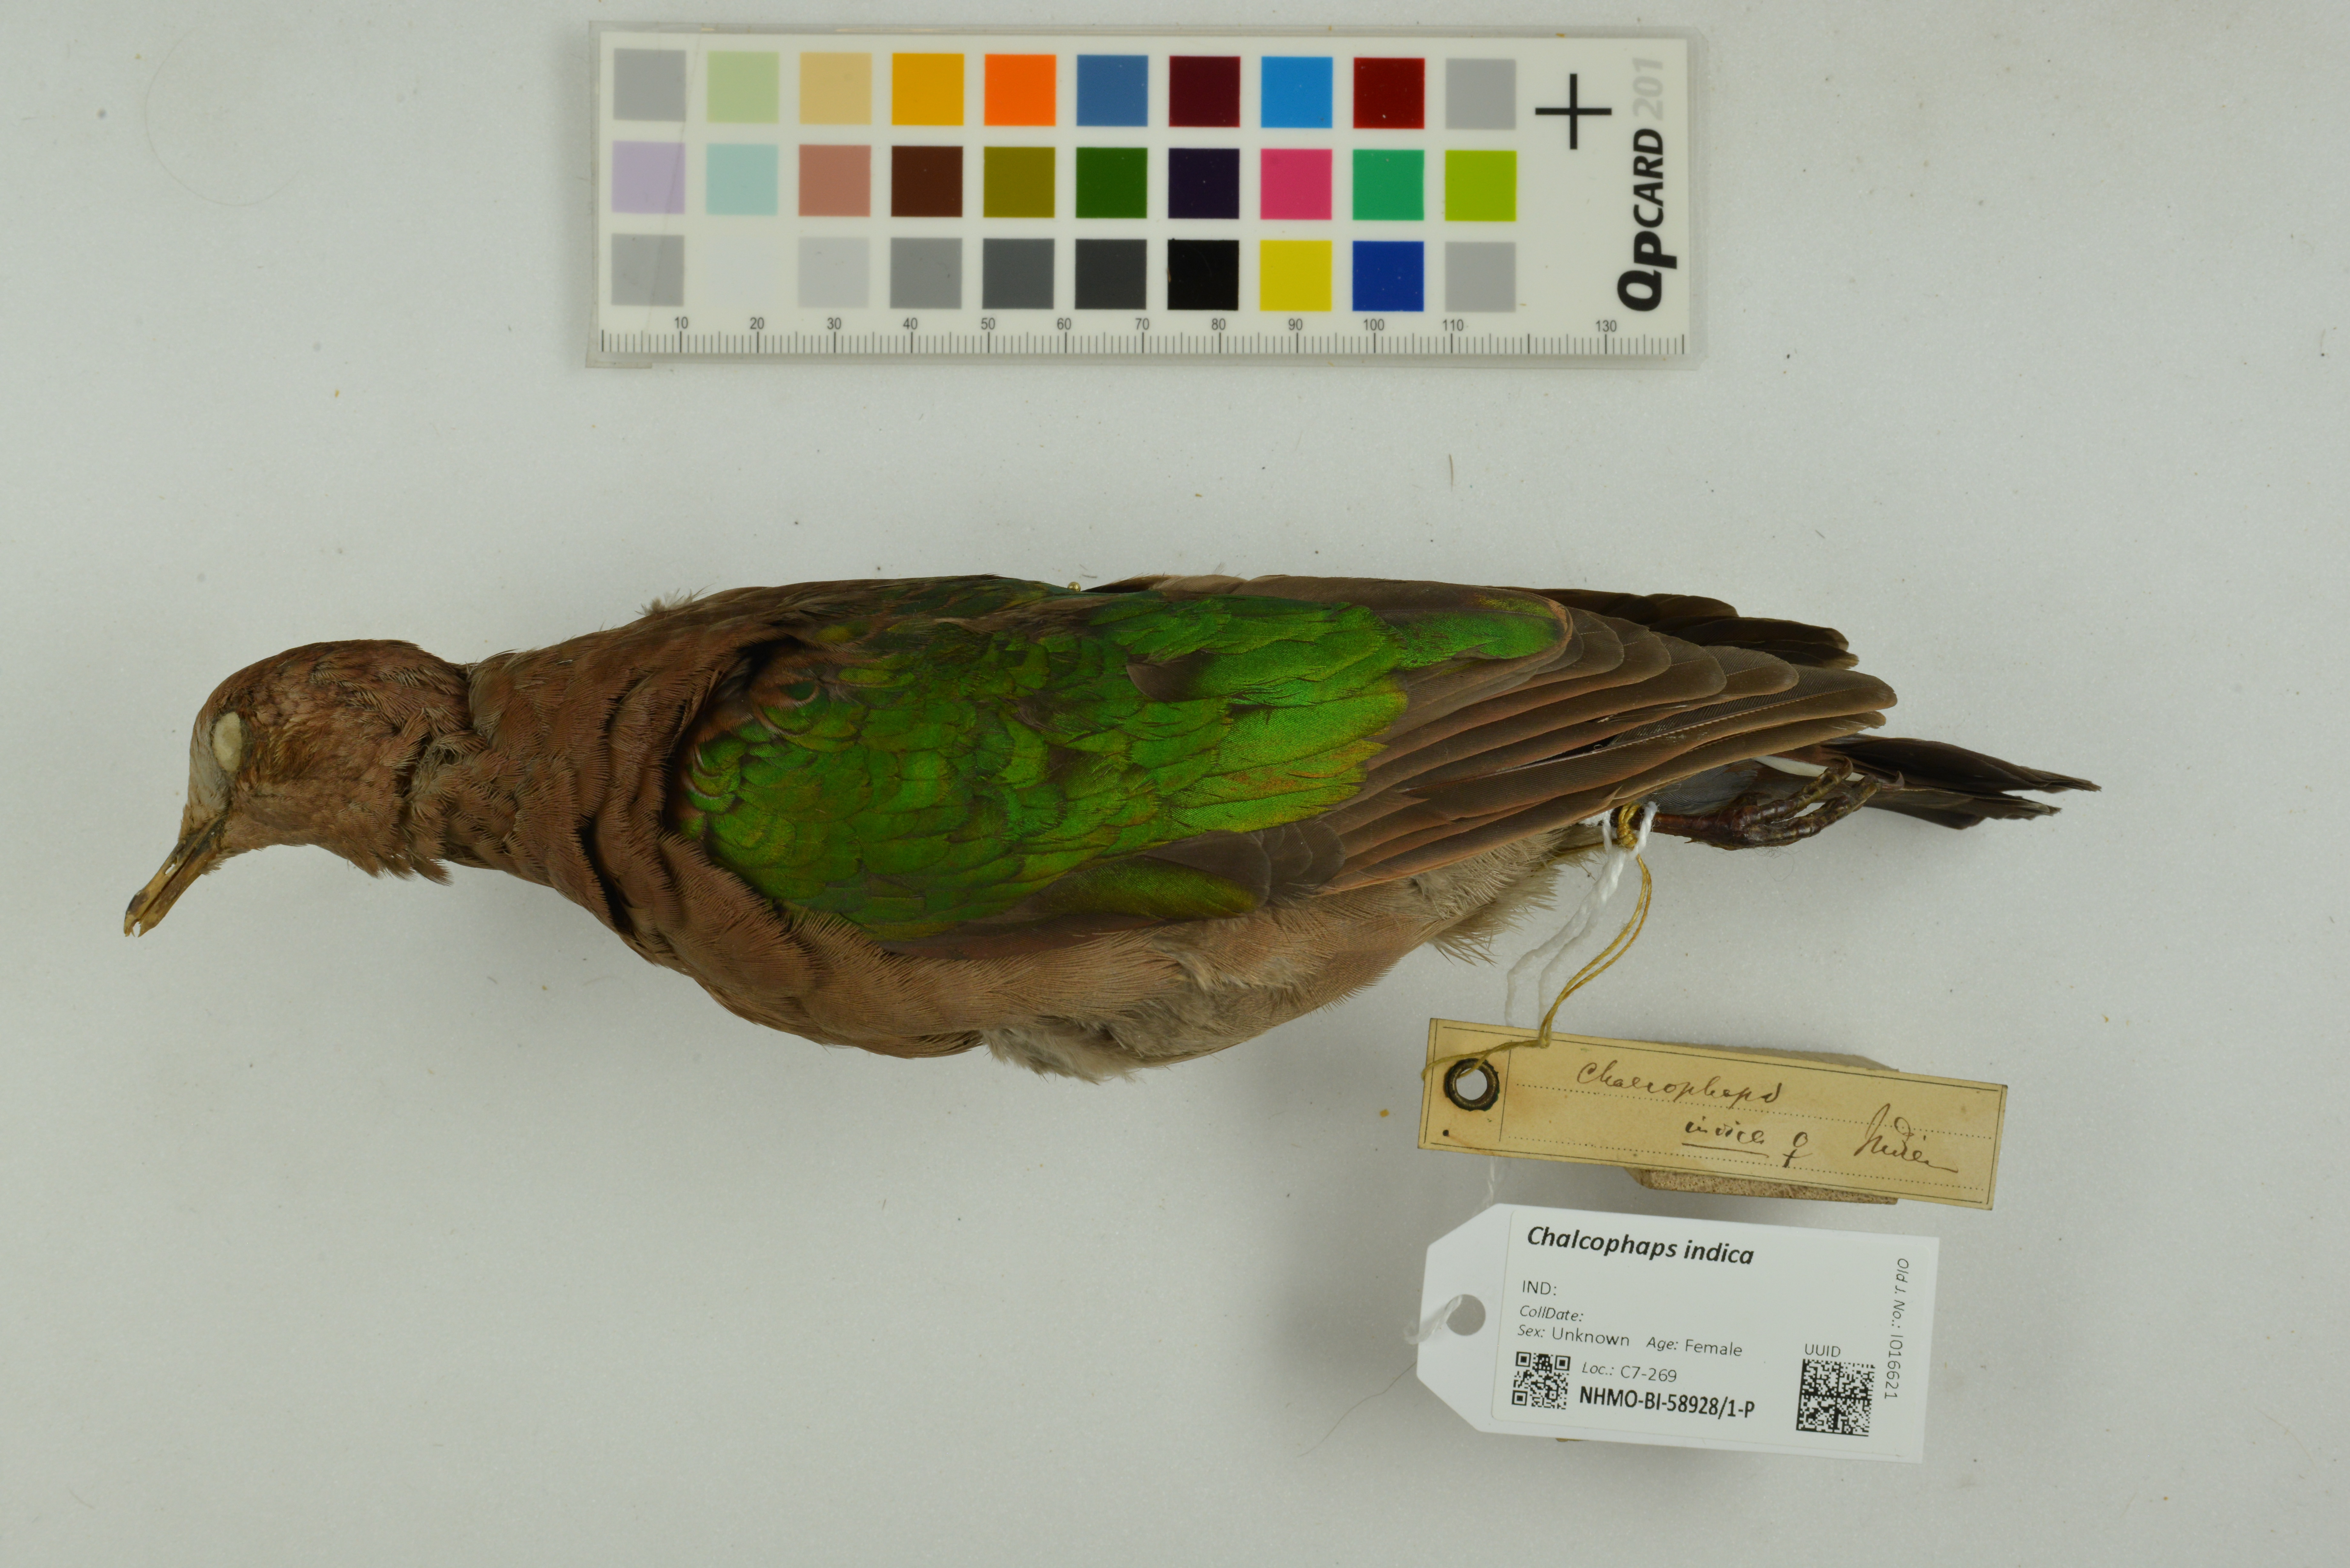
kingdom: Animalia
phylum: Chordata
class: Aves
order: Columbiformes
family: Columbidae
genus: Chalcophaps
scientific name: Chalcophaps indica
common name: Common emerald dove
